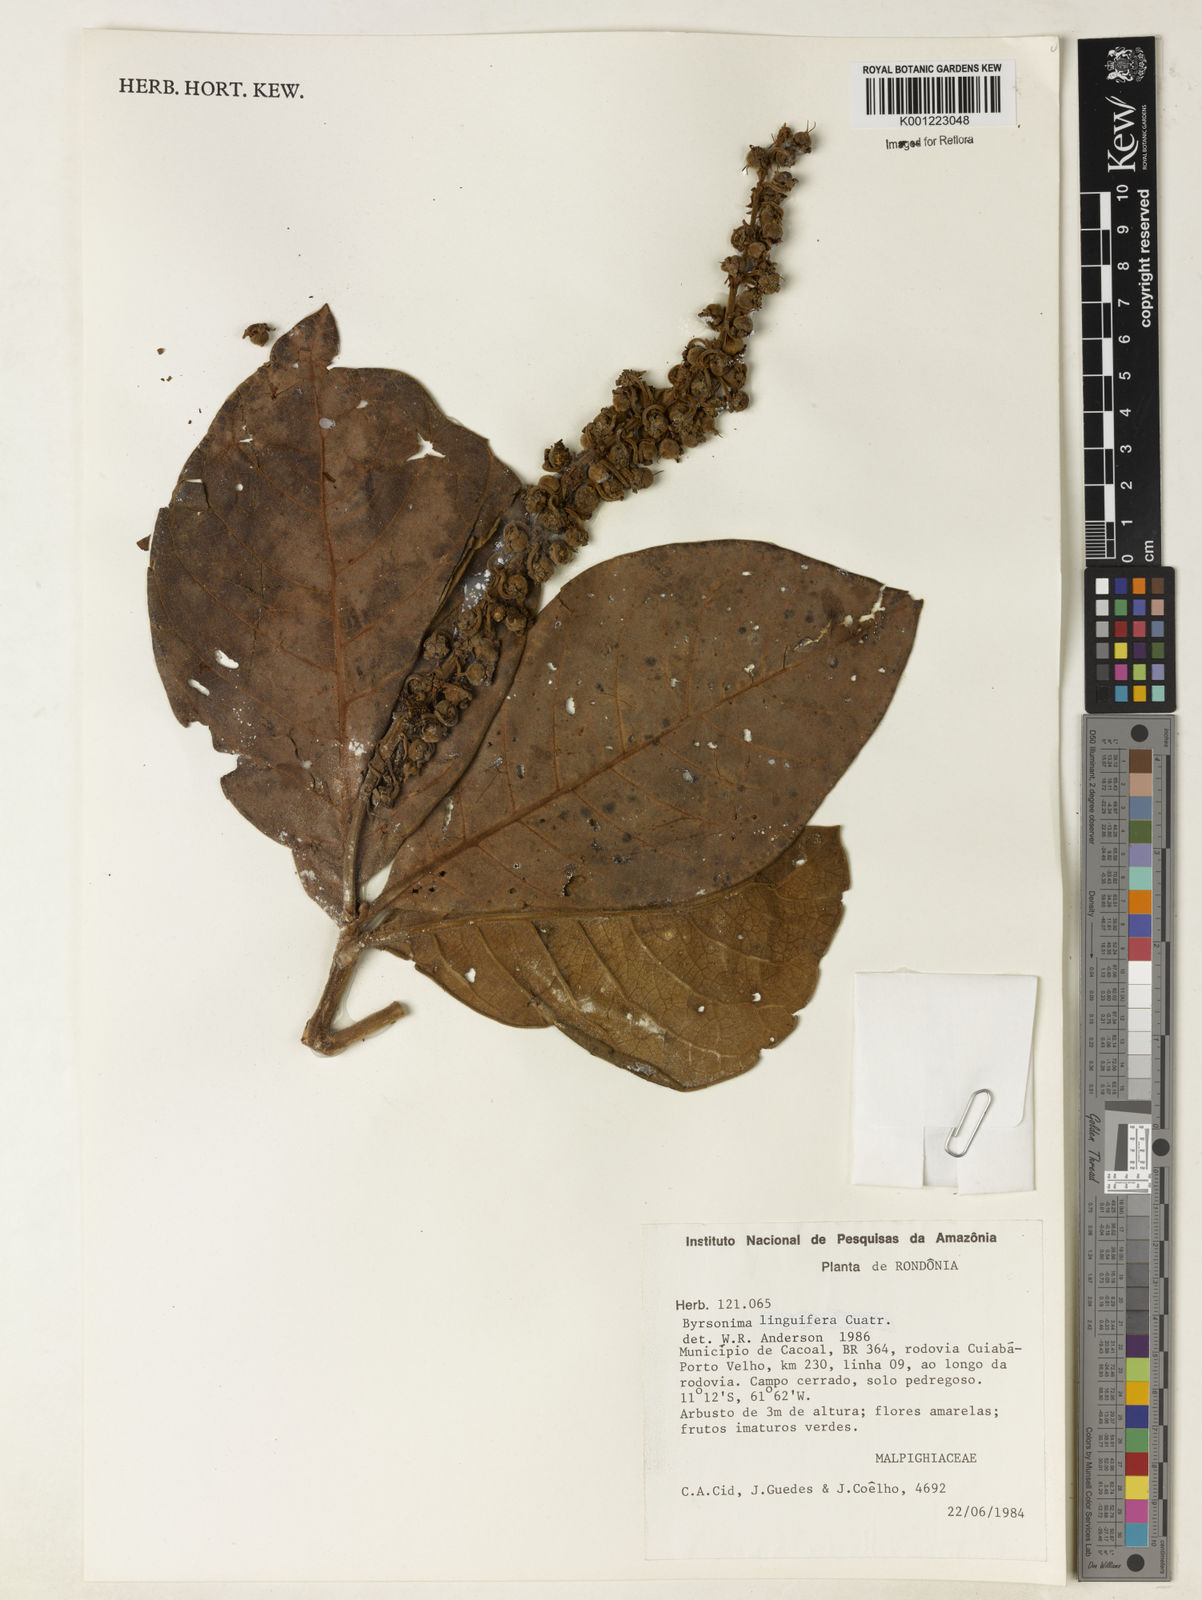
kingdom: Plantae
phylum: Tracheophyta
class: Magnoliopsida
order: Malpighiales
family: Malpighiaceae
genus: Byrsonima
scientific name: Byrsonima linguifera
